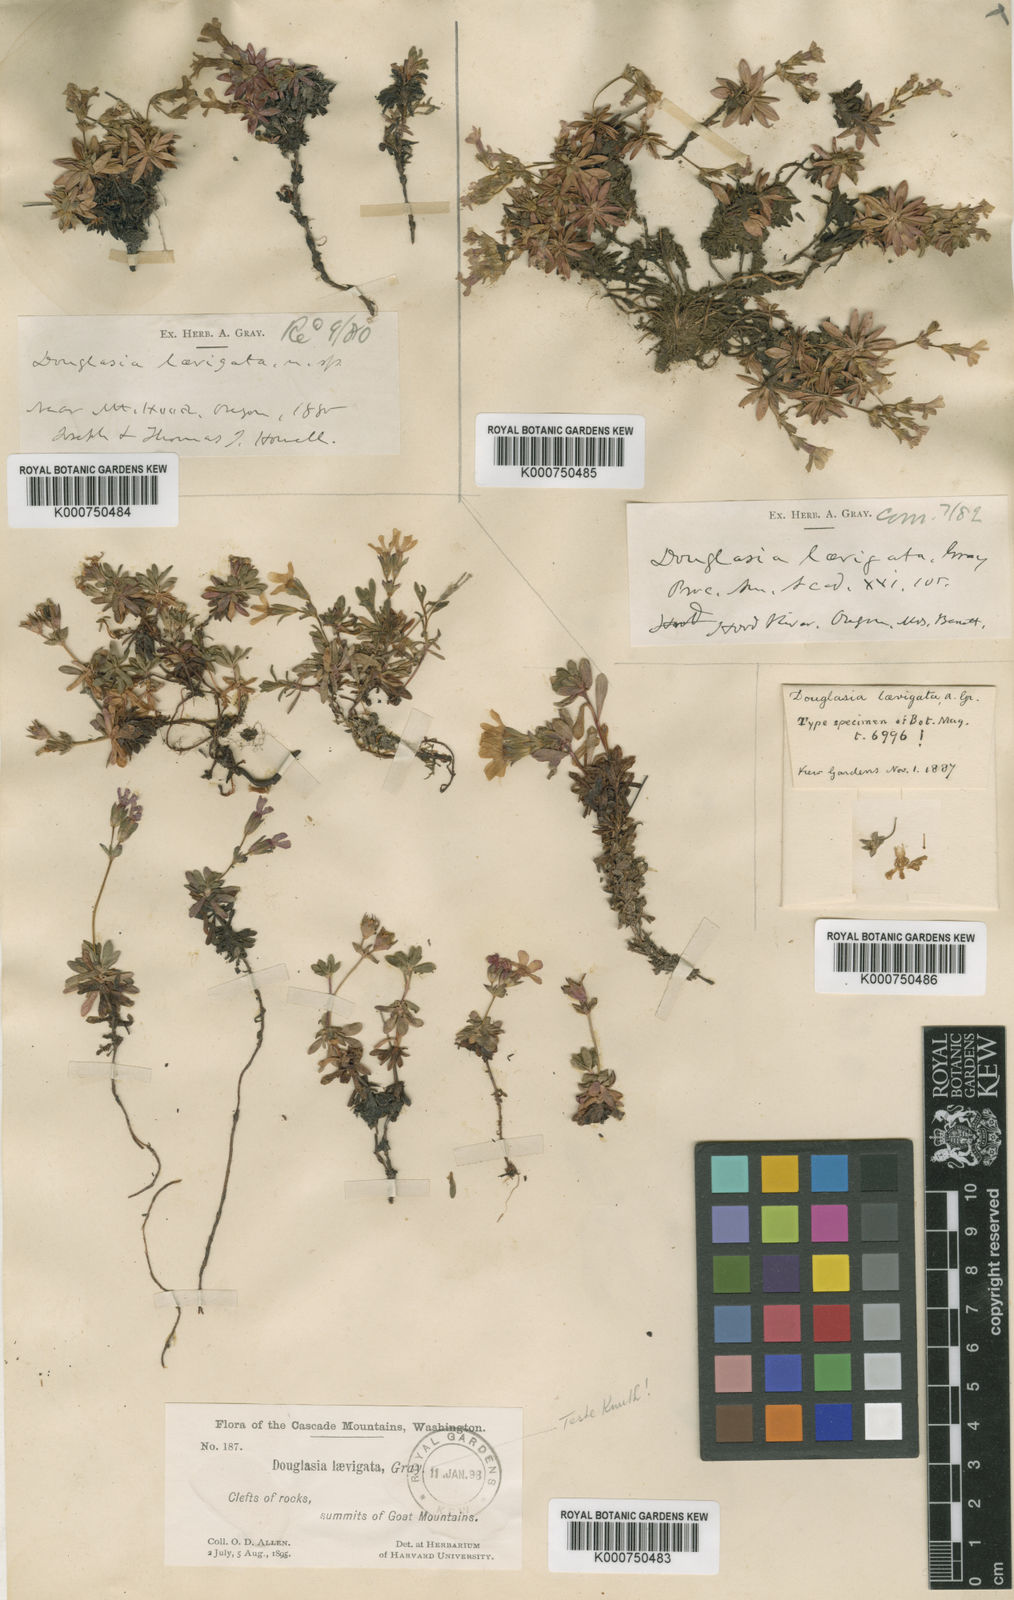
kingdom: Plantae
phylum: Tracheophyta
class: Magnoliopsida
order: Ericales
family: Primulaceae
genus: Androsace
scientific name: Androsace
